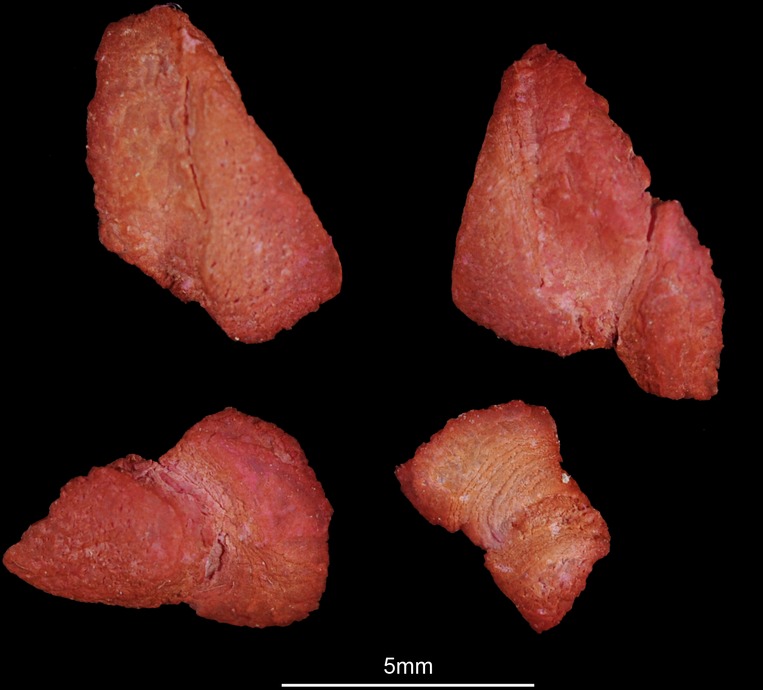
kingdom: Animalia
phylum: Chordata
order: Perciformes
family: Cichlidae
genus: Cyphotilapia
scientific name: Cyphotilapia frontosa
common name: Humphead cichlid
